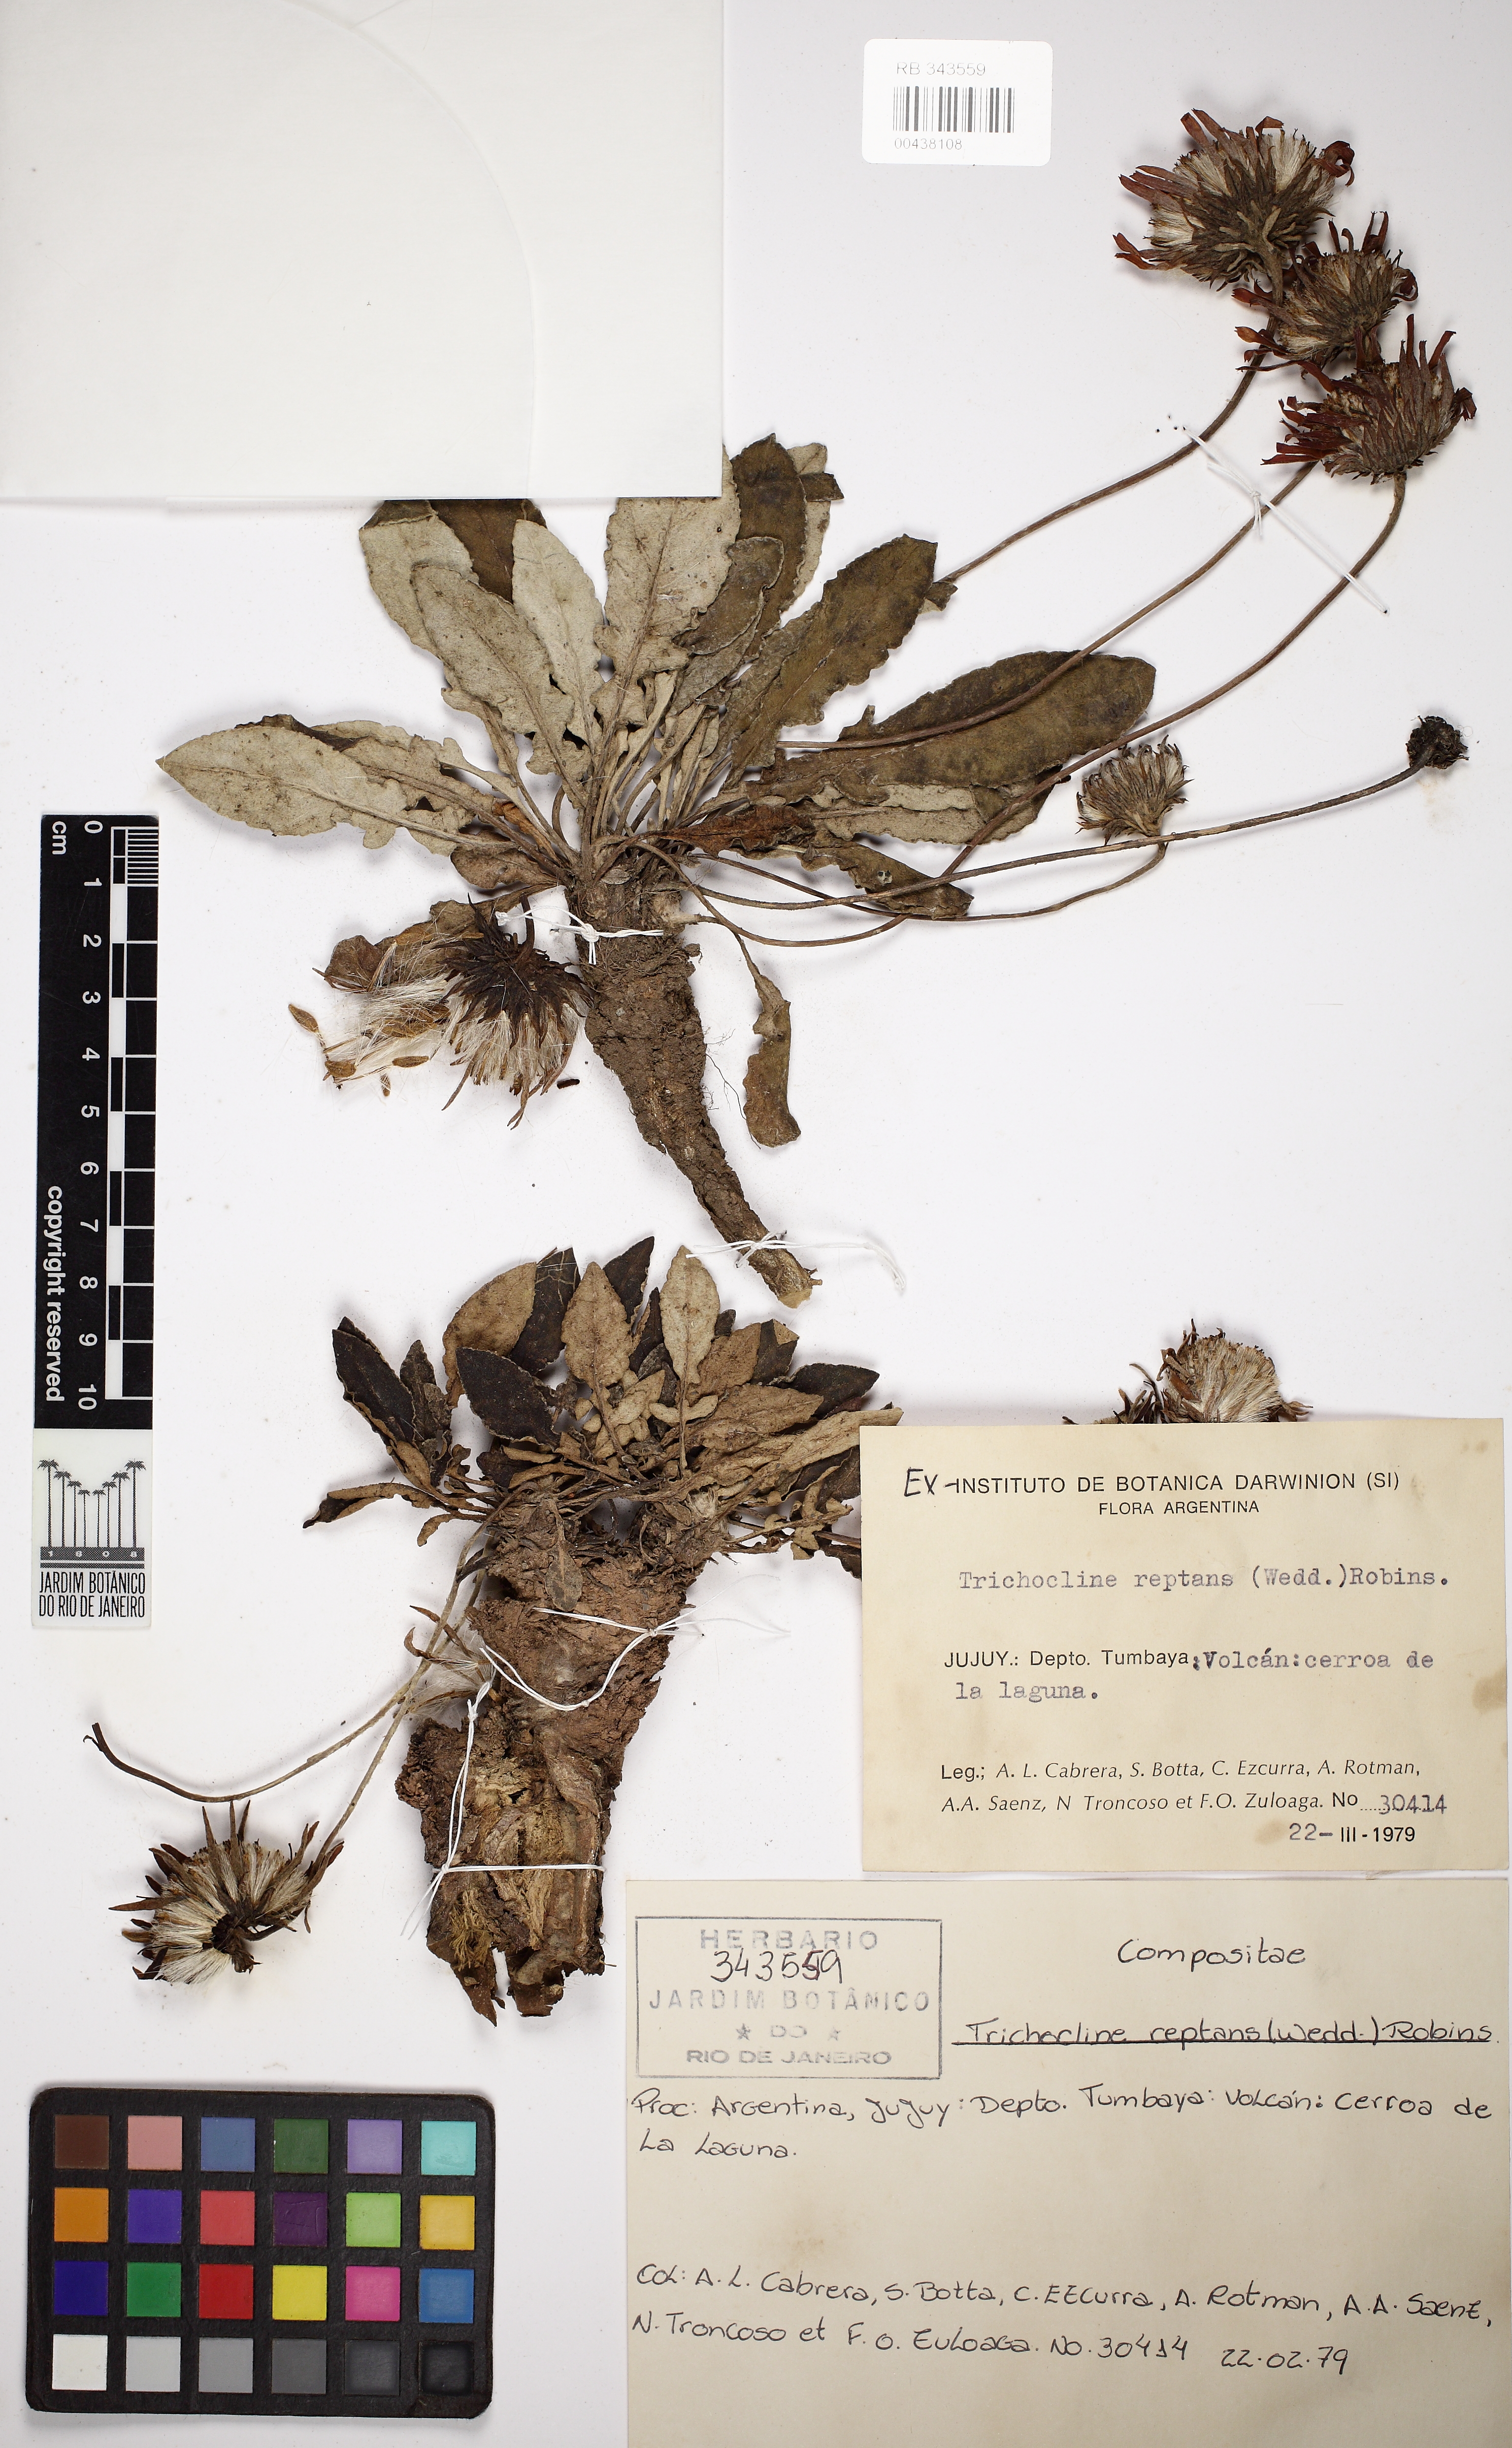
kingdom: Plantae
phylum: Tracheophyta
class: Magnoliopsida
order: Asterales
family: Asteraceae
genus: Trichocline
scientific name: Trichocline auriculata
